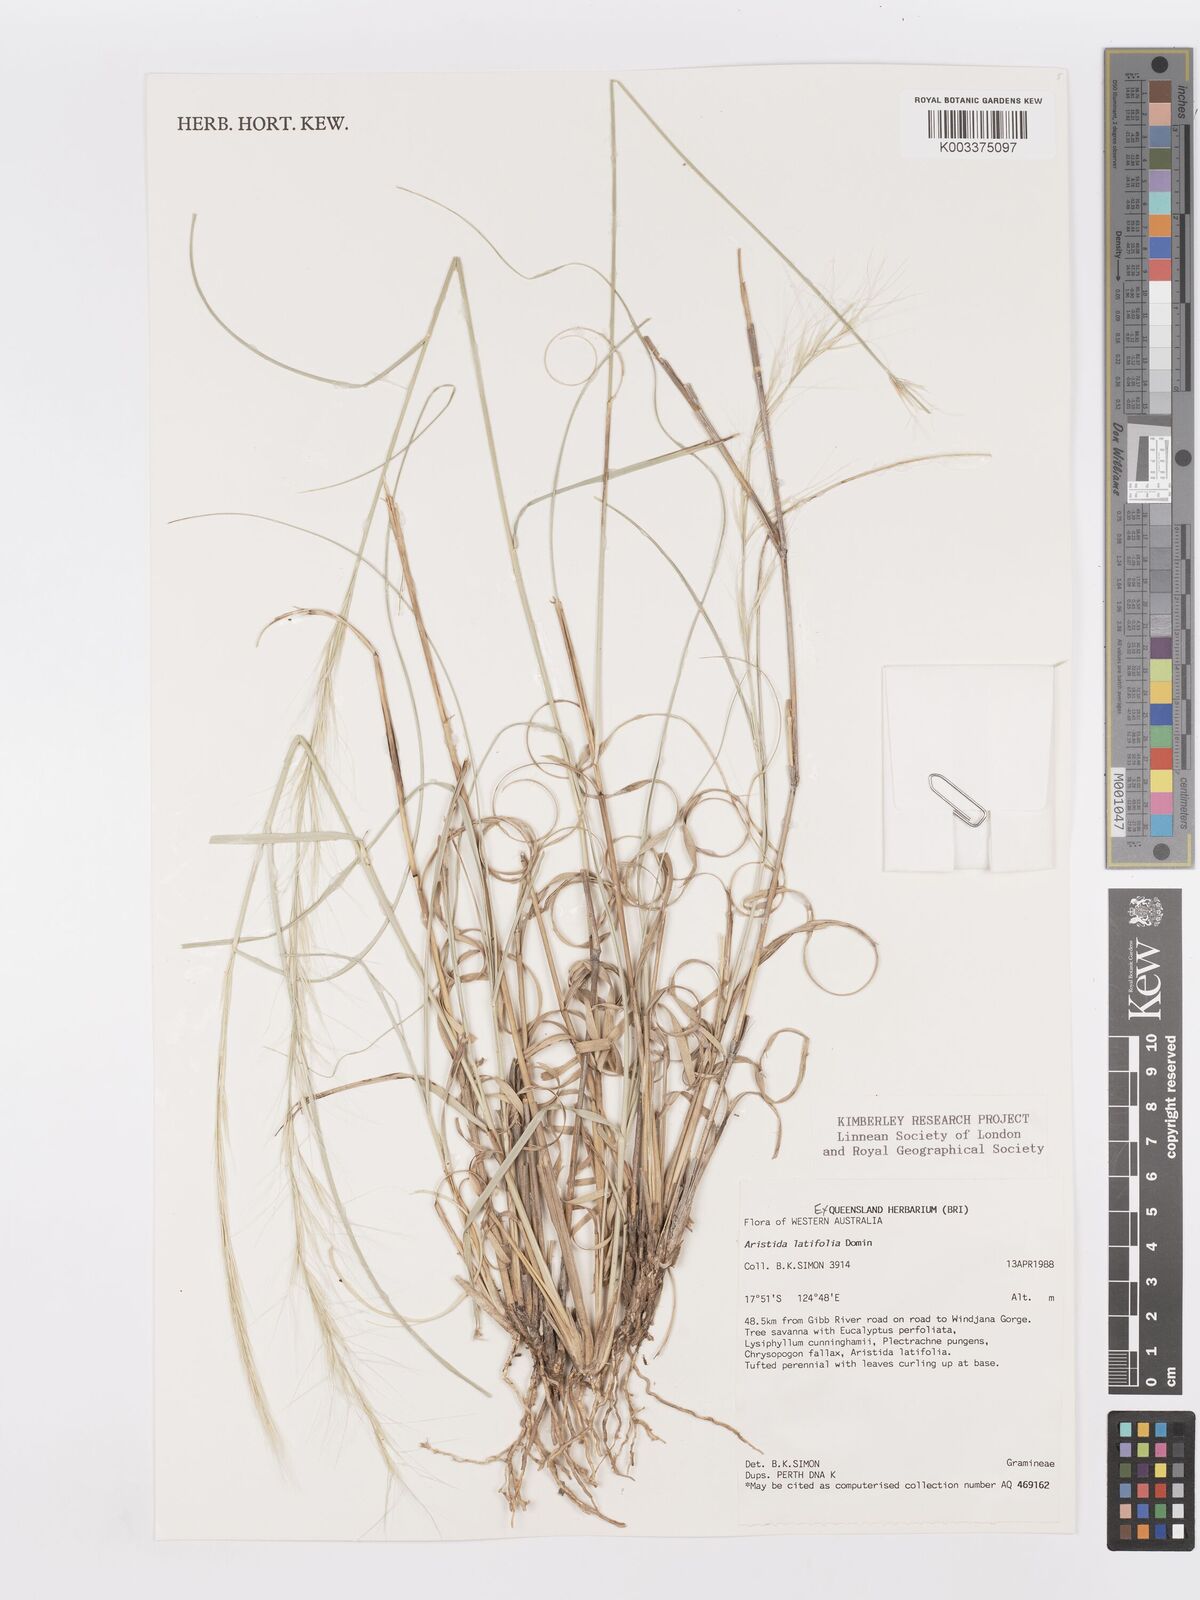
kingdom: Plantae
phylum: Tracheophyta
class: Liliopsida
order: Poales
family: Poaceae
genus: Aristida
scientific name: Aristida latifolia
